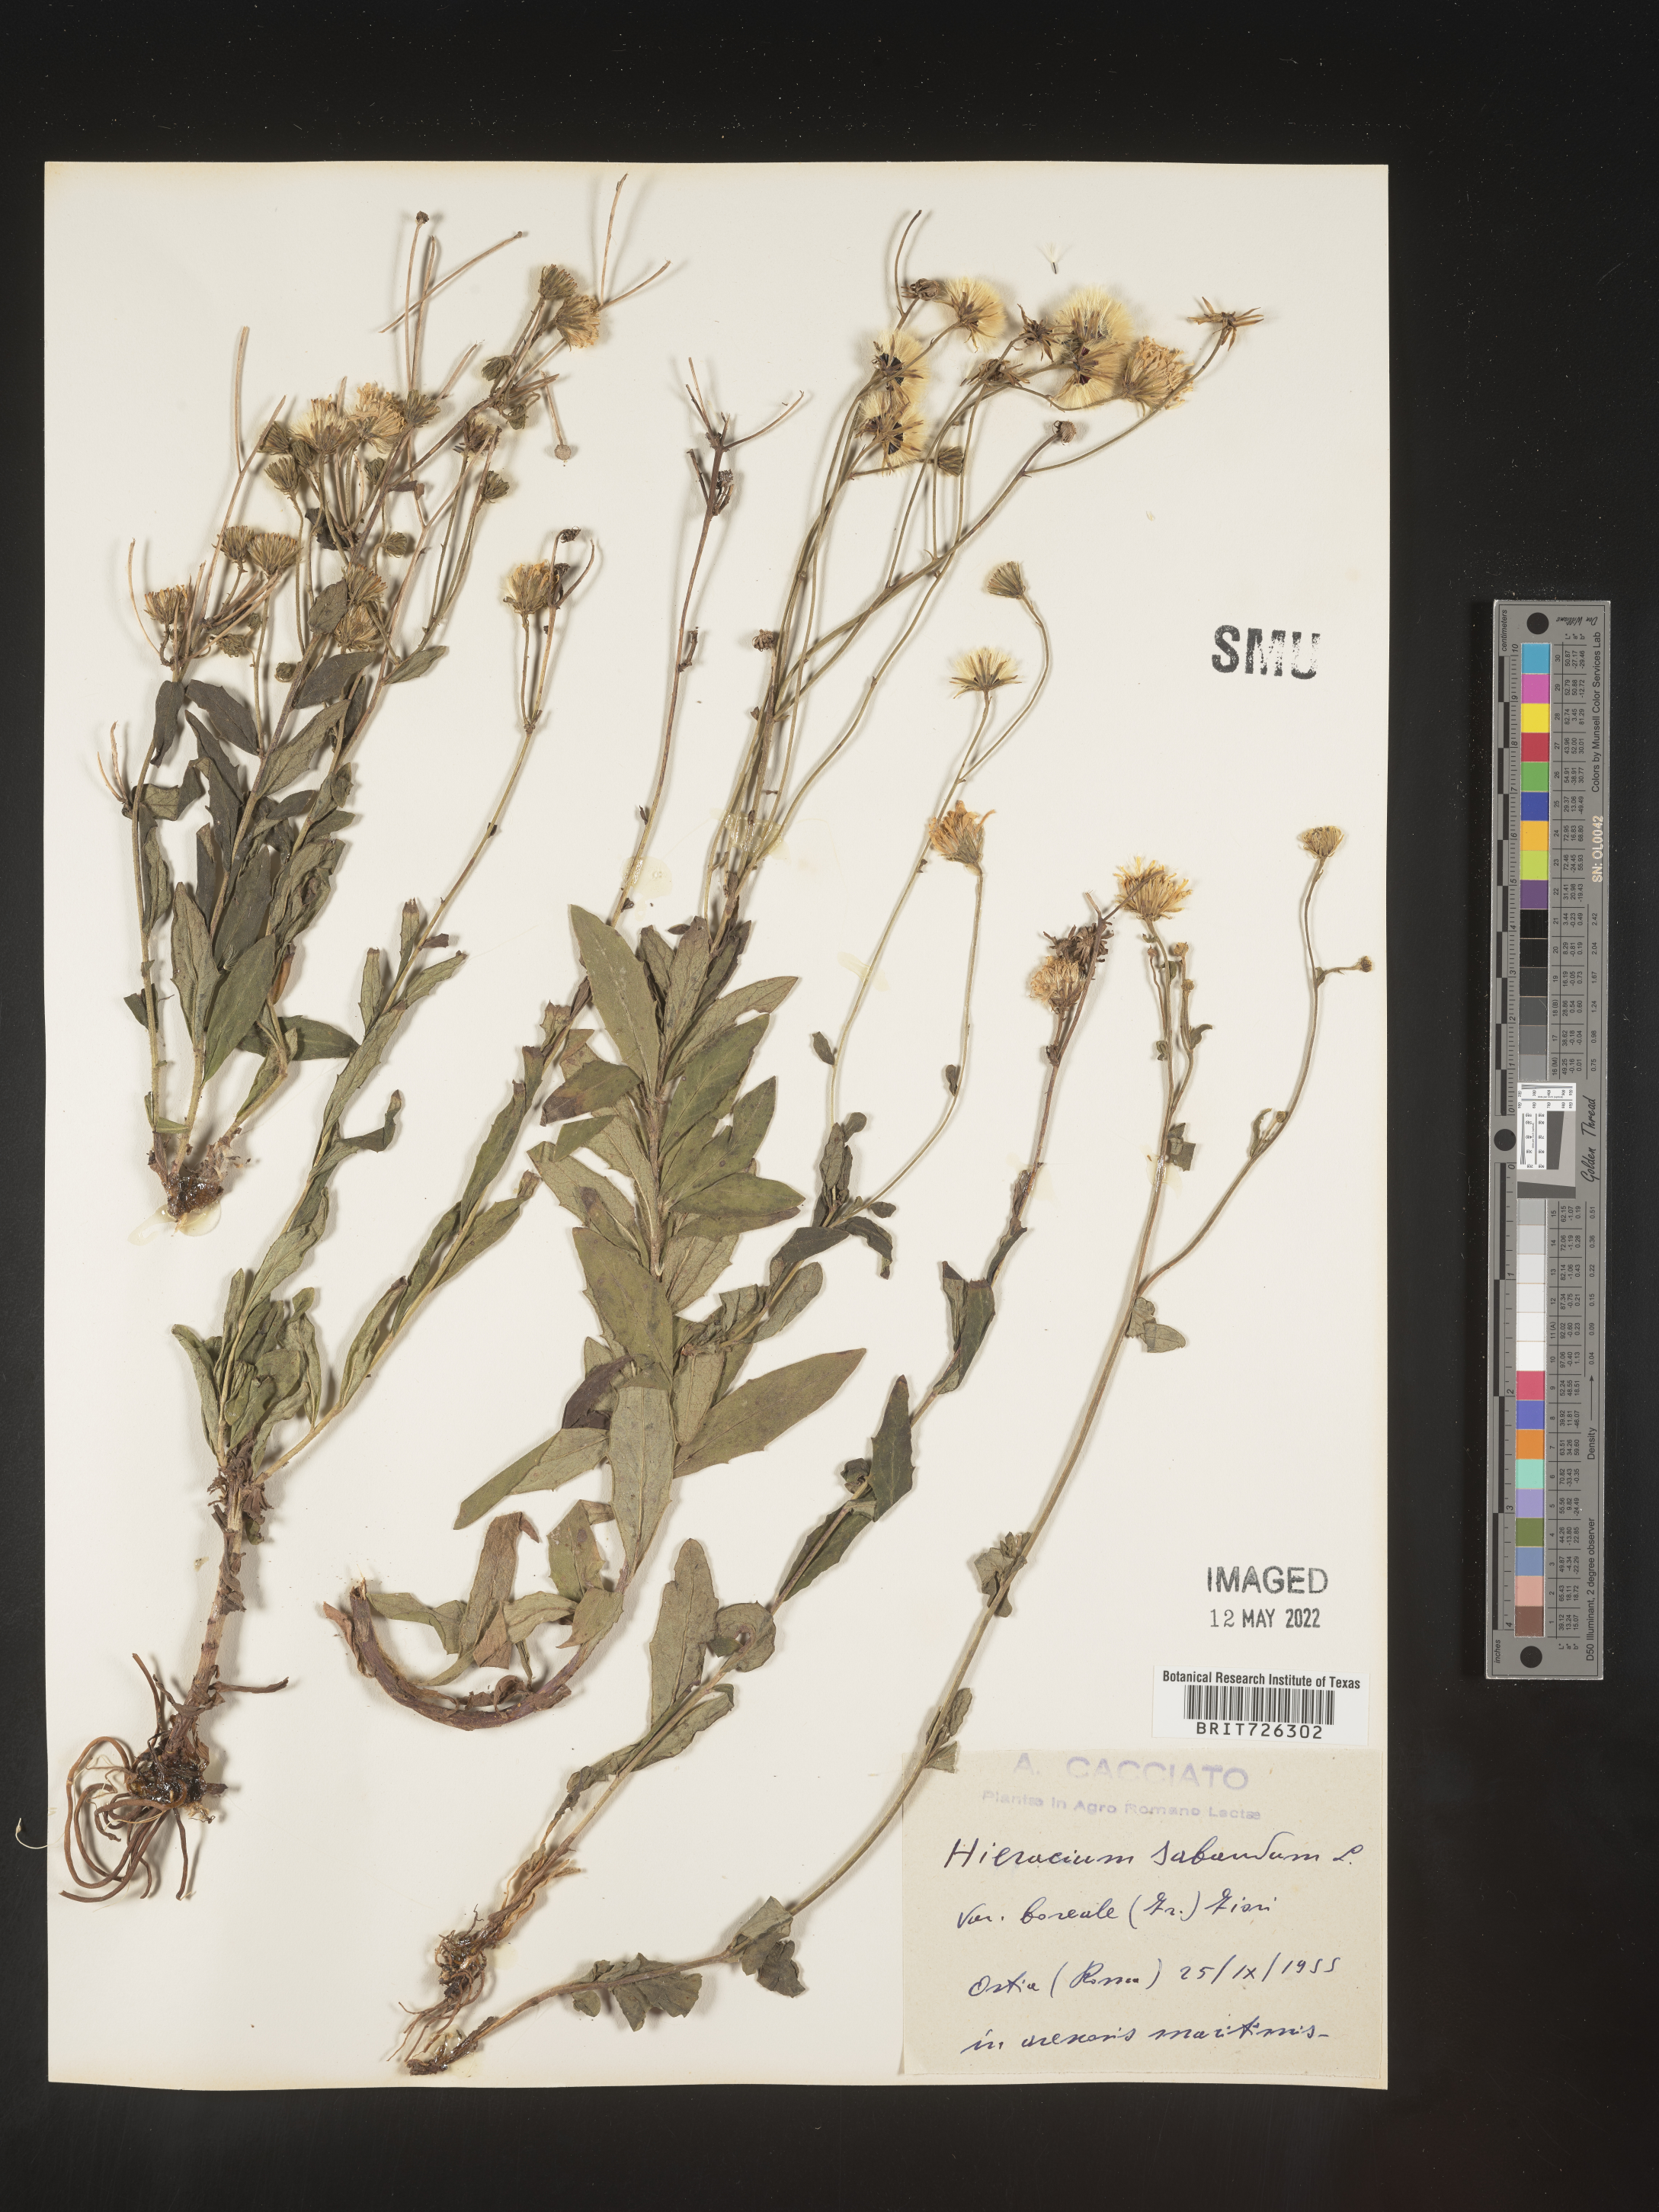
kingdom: Plantae
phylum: Tracheophyta
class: Magnoliopsida
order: Asterales
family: Asteraceae
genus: Hieracium
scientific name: Hieracium
